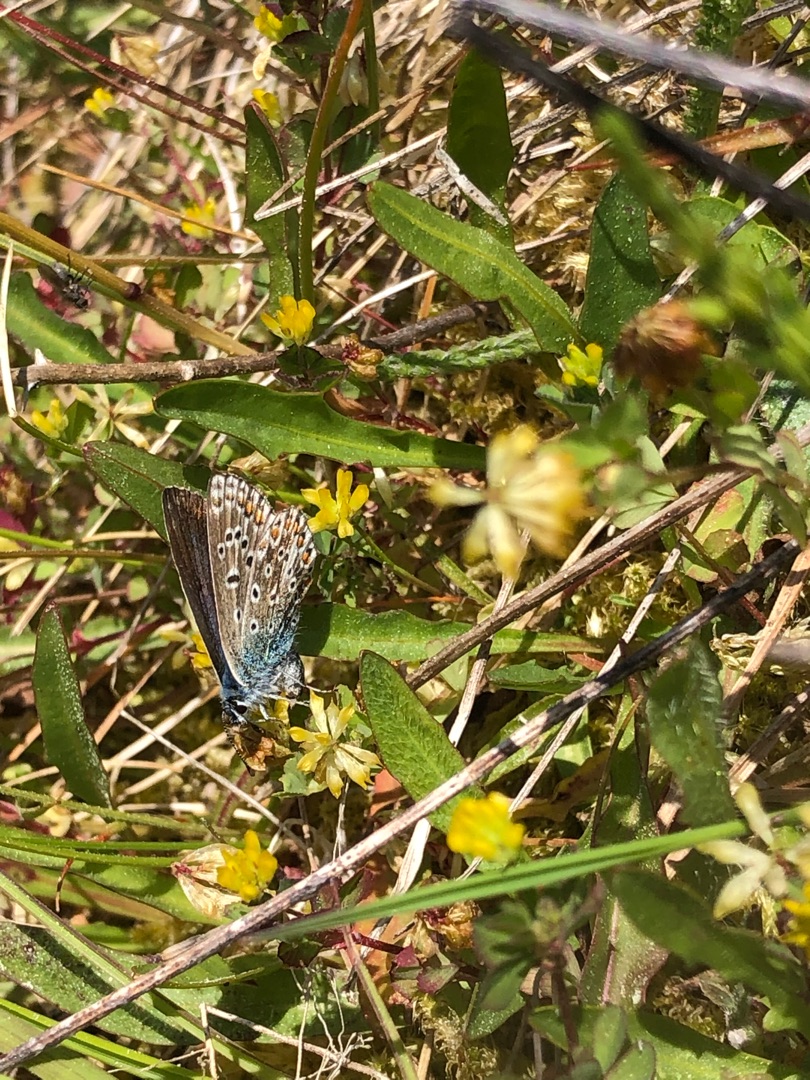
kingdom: Animalia
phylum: Arthropoda
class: Insecta
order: Lepidoptera
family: Lycaenidae
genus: Polyommatus
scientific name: Polyommatus icarus
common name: Almindelig blåfugl
